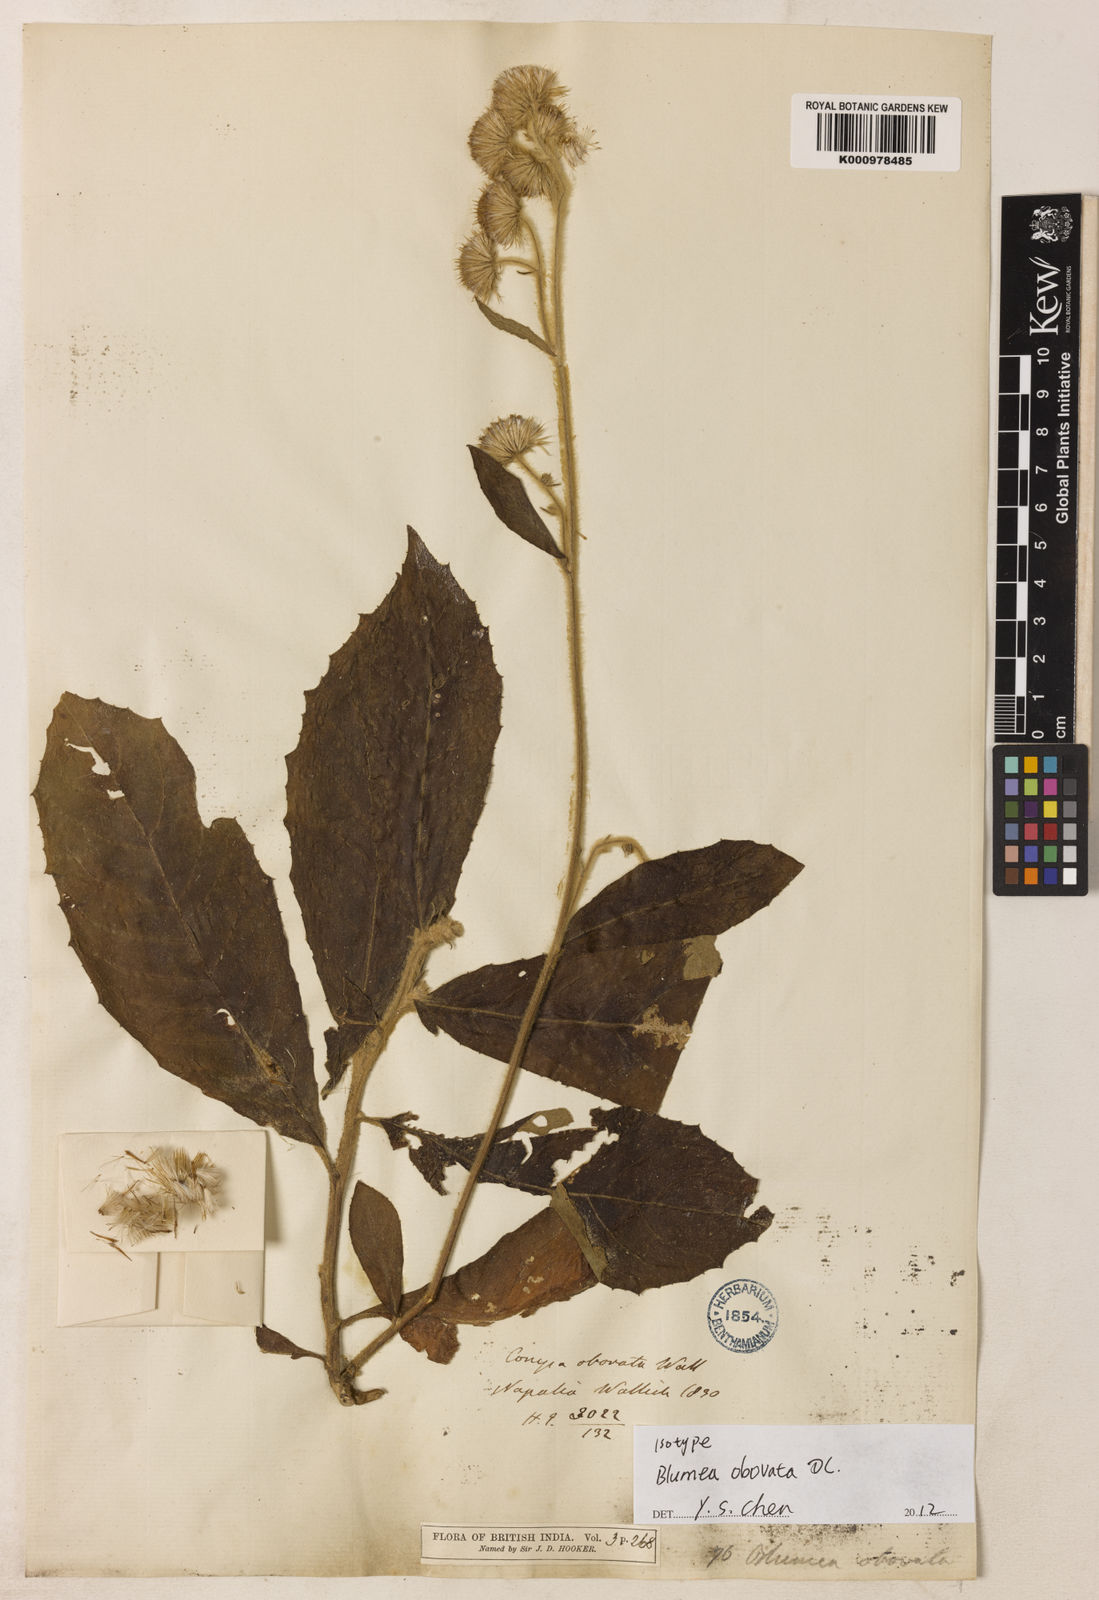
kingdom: Plantae
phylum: Tracheophyta
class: Magnoliopsida
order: Asterales
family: Asteraceae
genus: Blumea
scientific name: Blumea obovata
